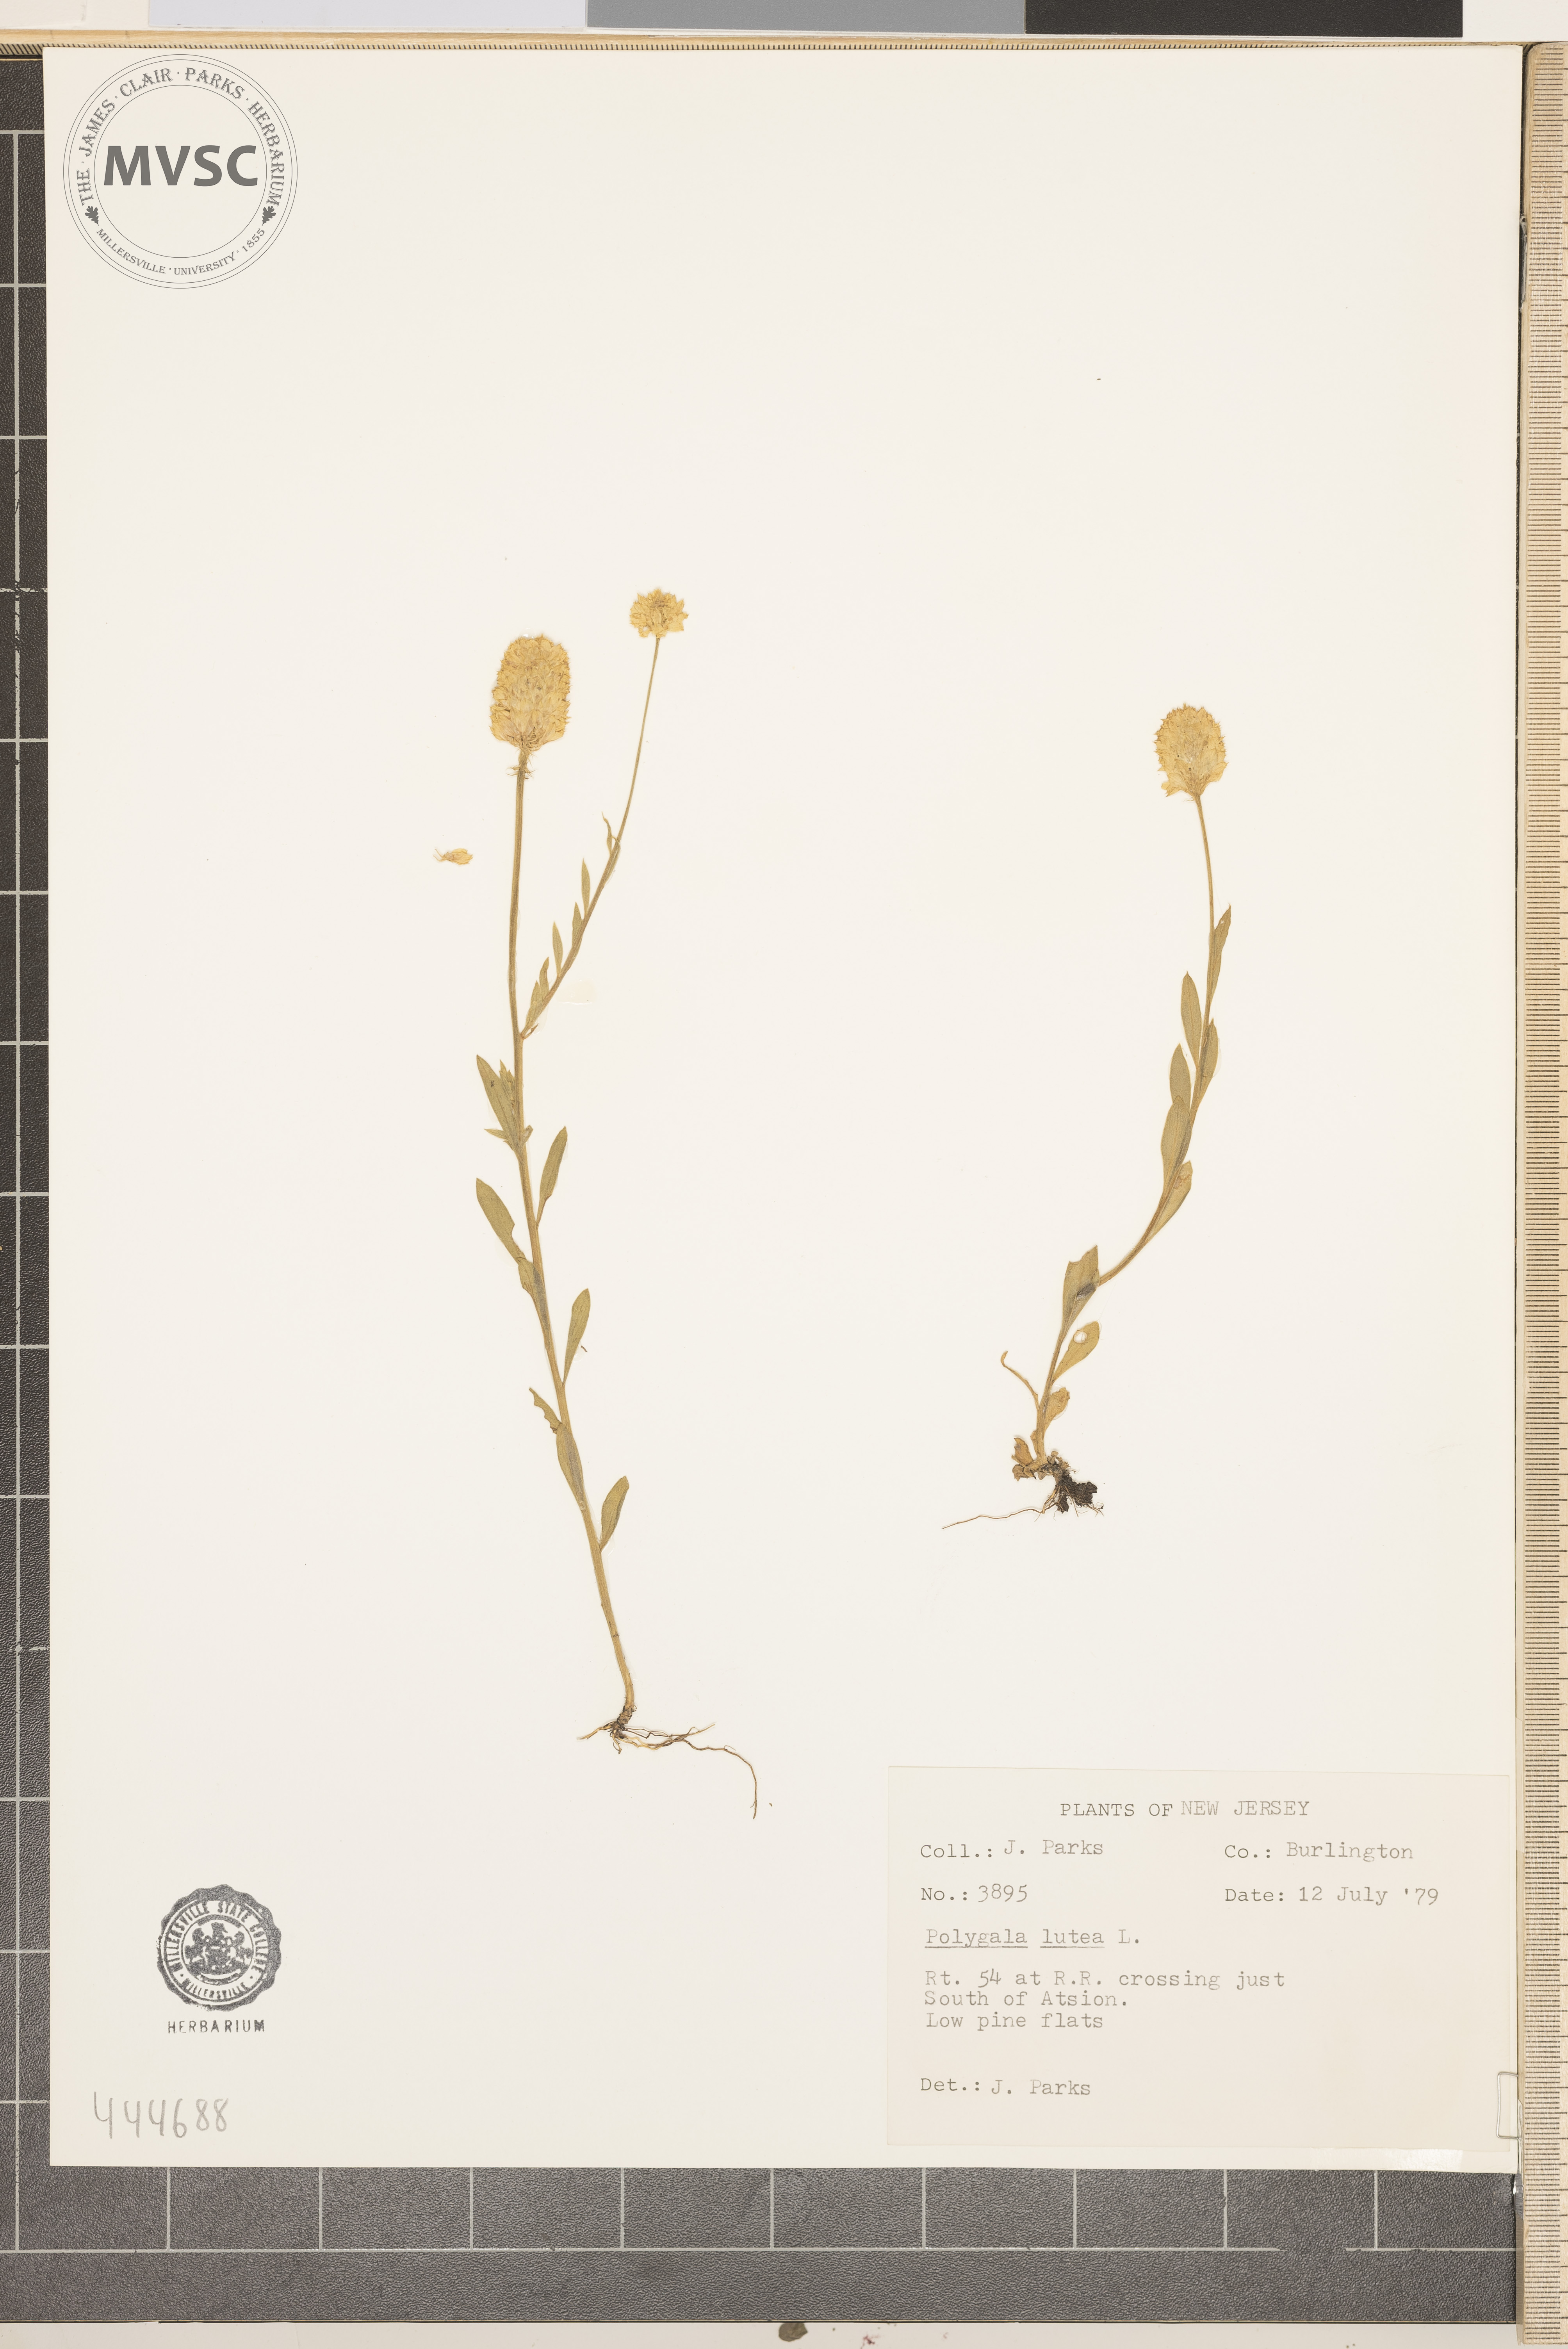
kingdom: Plantae
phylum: Tracheophyta
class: Magnoliopsida
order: Fabales
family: Polygalaceae
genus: Polygala
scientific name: Polygala lutea
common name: Orange milkwort
